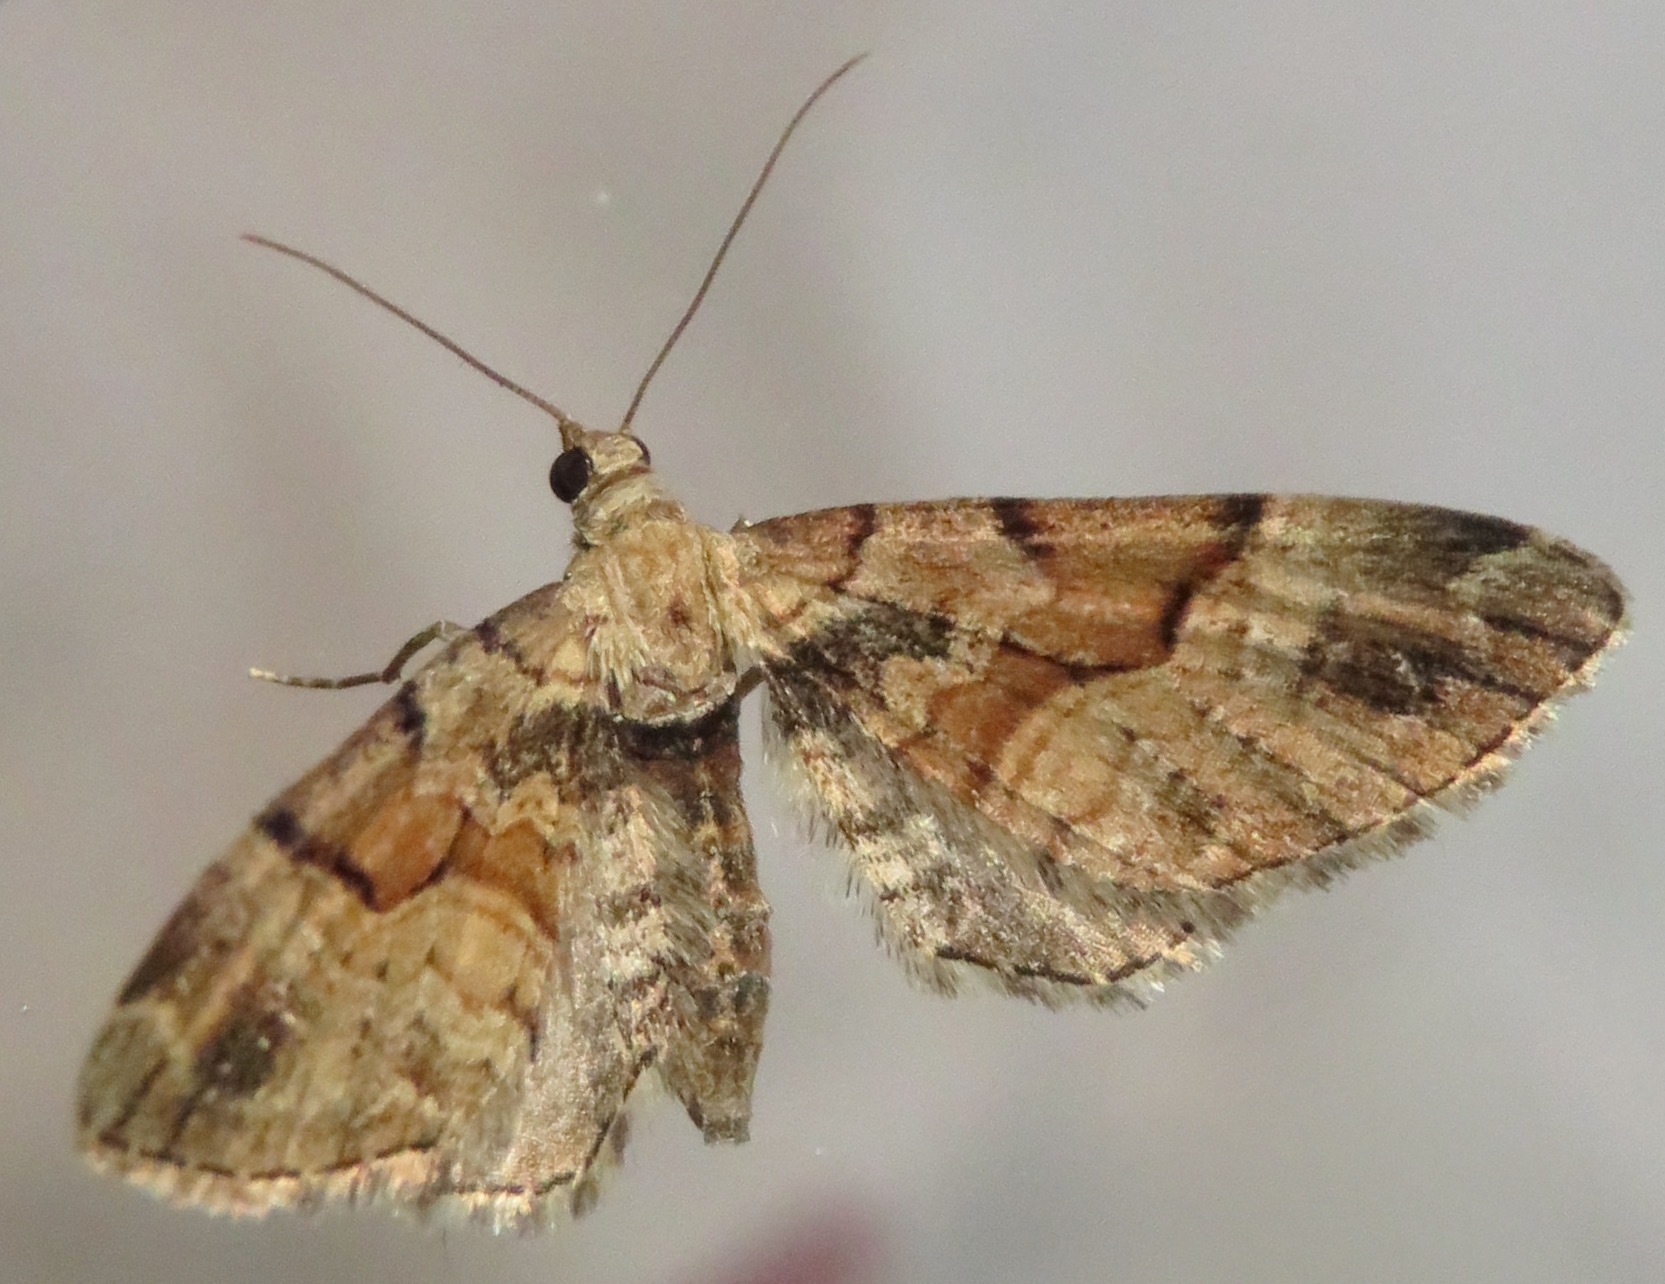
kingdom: Animalia
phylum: Arthropoda
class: Insecta
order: Lepidoptera
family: Geometridae
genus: Eupithecia
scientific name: Eupithecia sinuosaria
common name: Goosefoot pug
